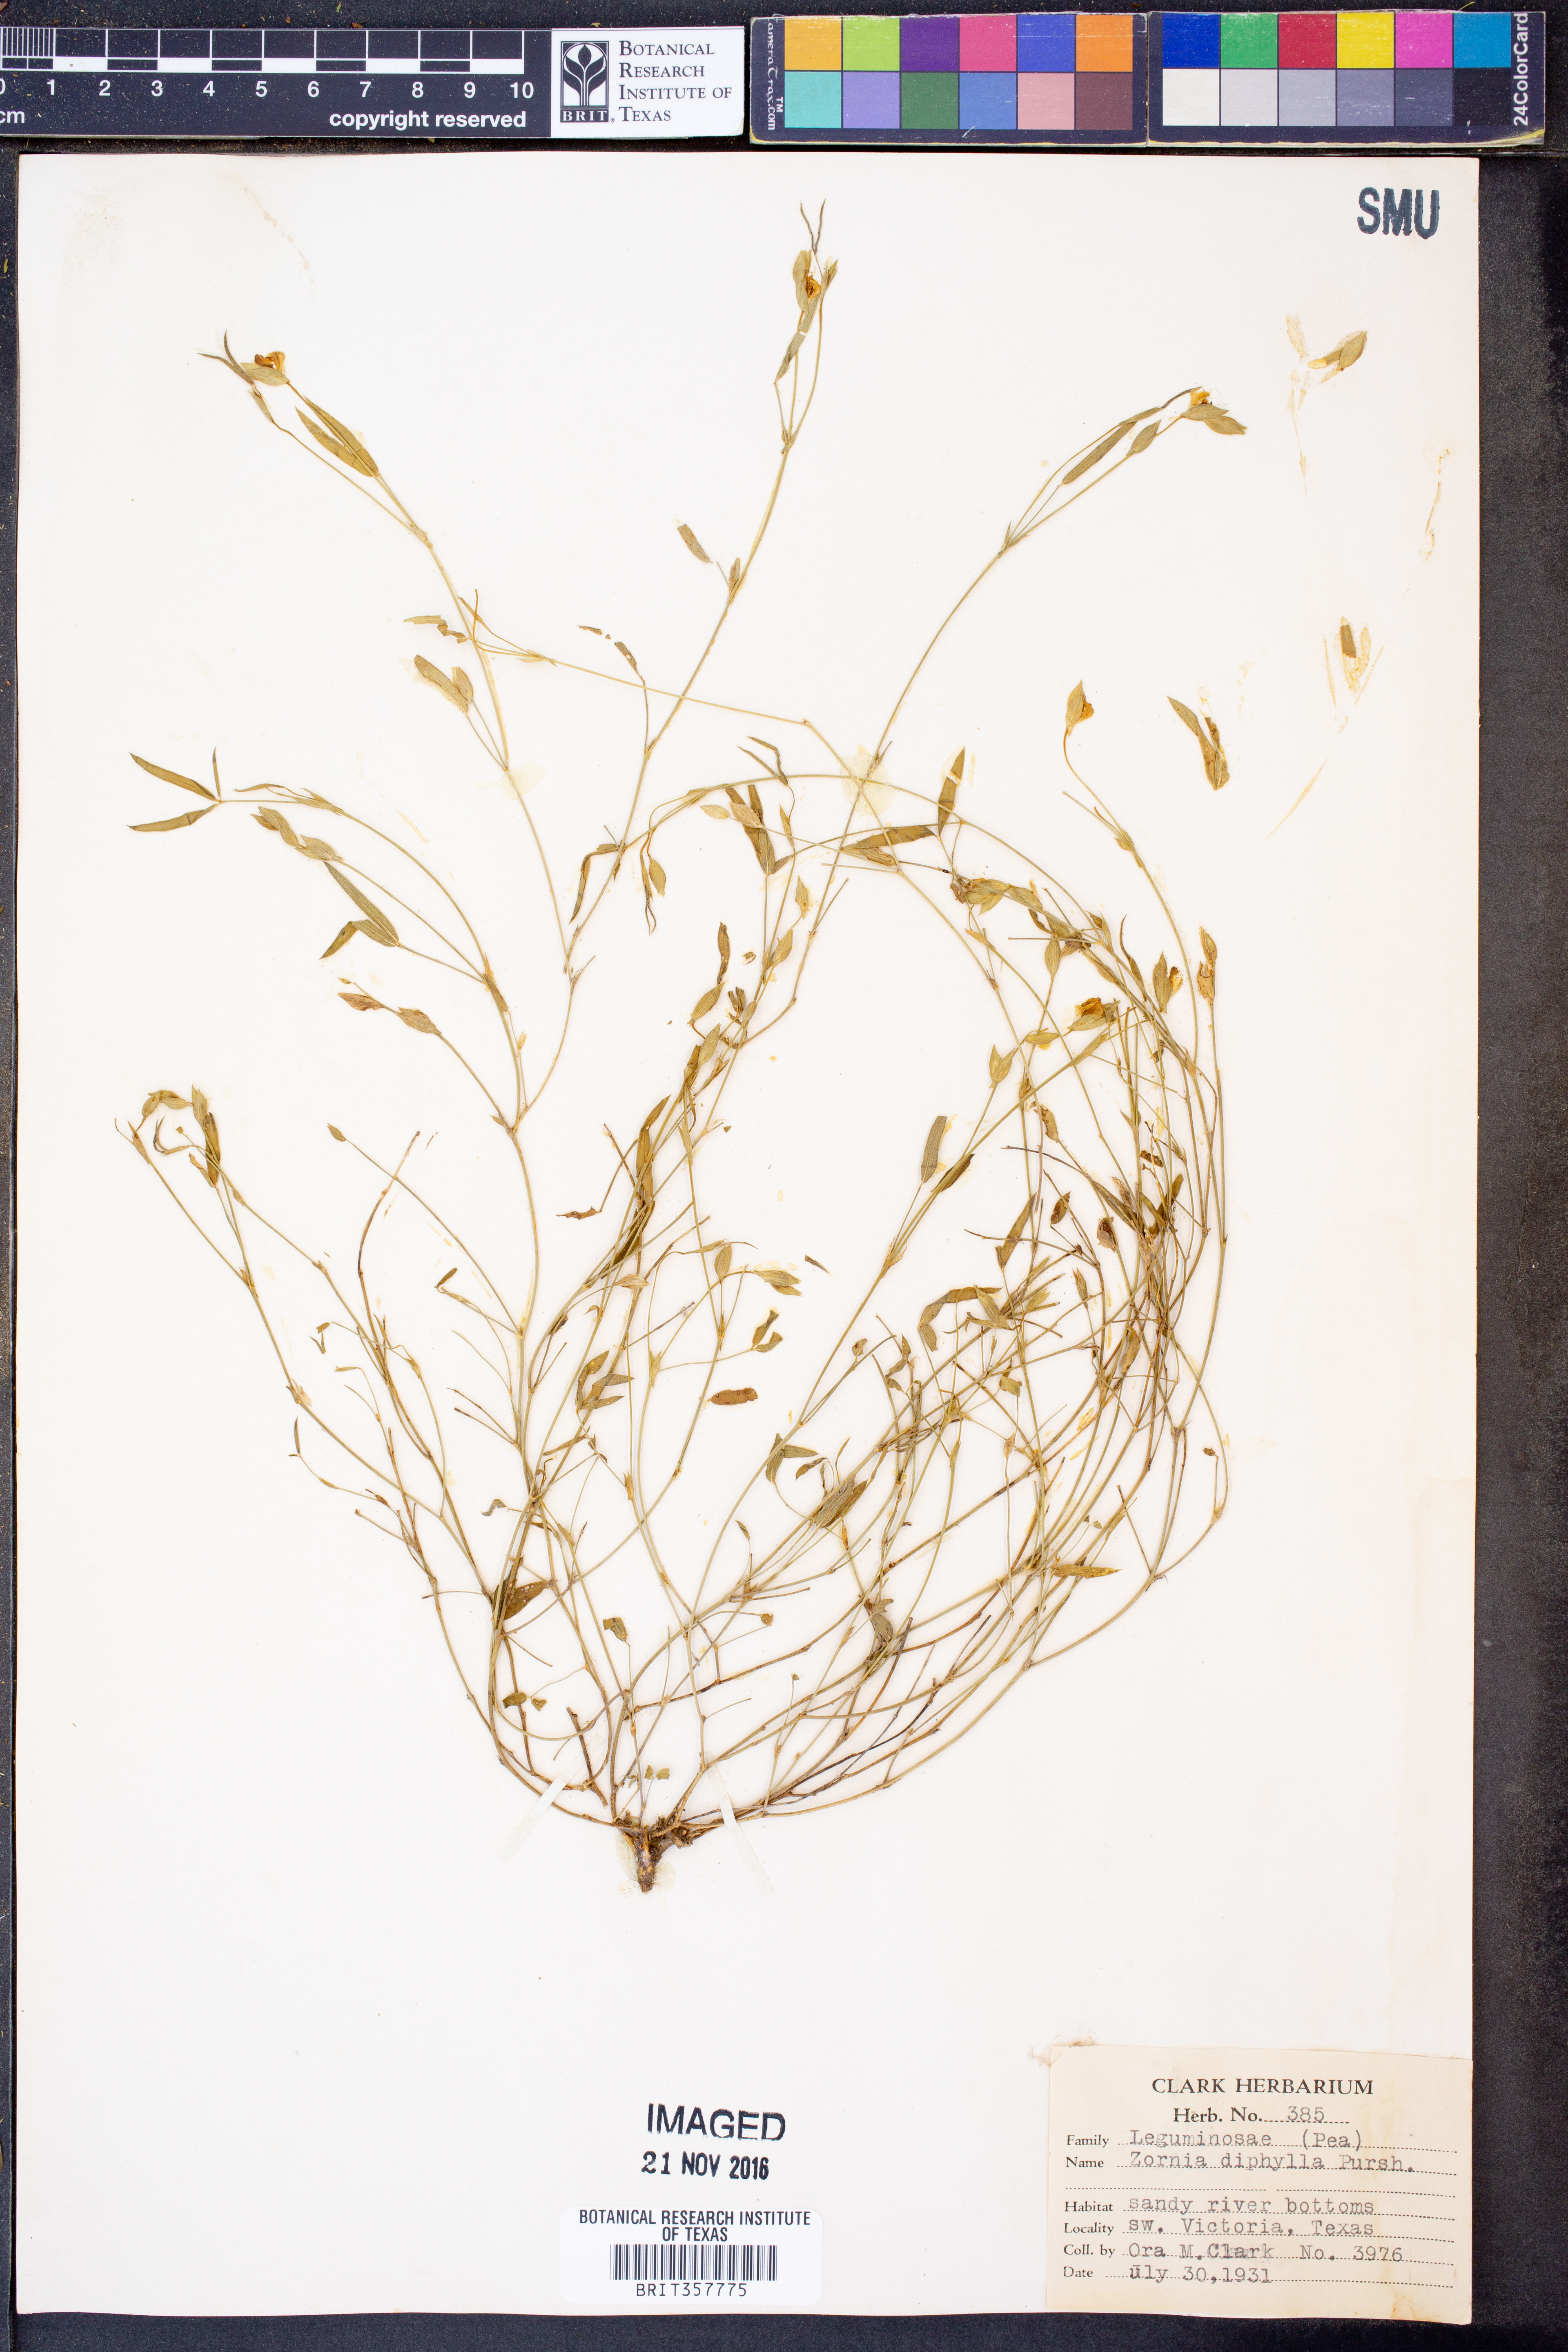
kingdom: Plantae
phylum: Tracheophyta
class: Magnoliopsida
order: Fabales
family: Fabaceae
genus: Zornia
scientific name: Zornia diphylla
